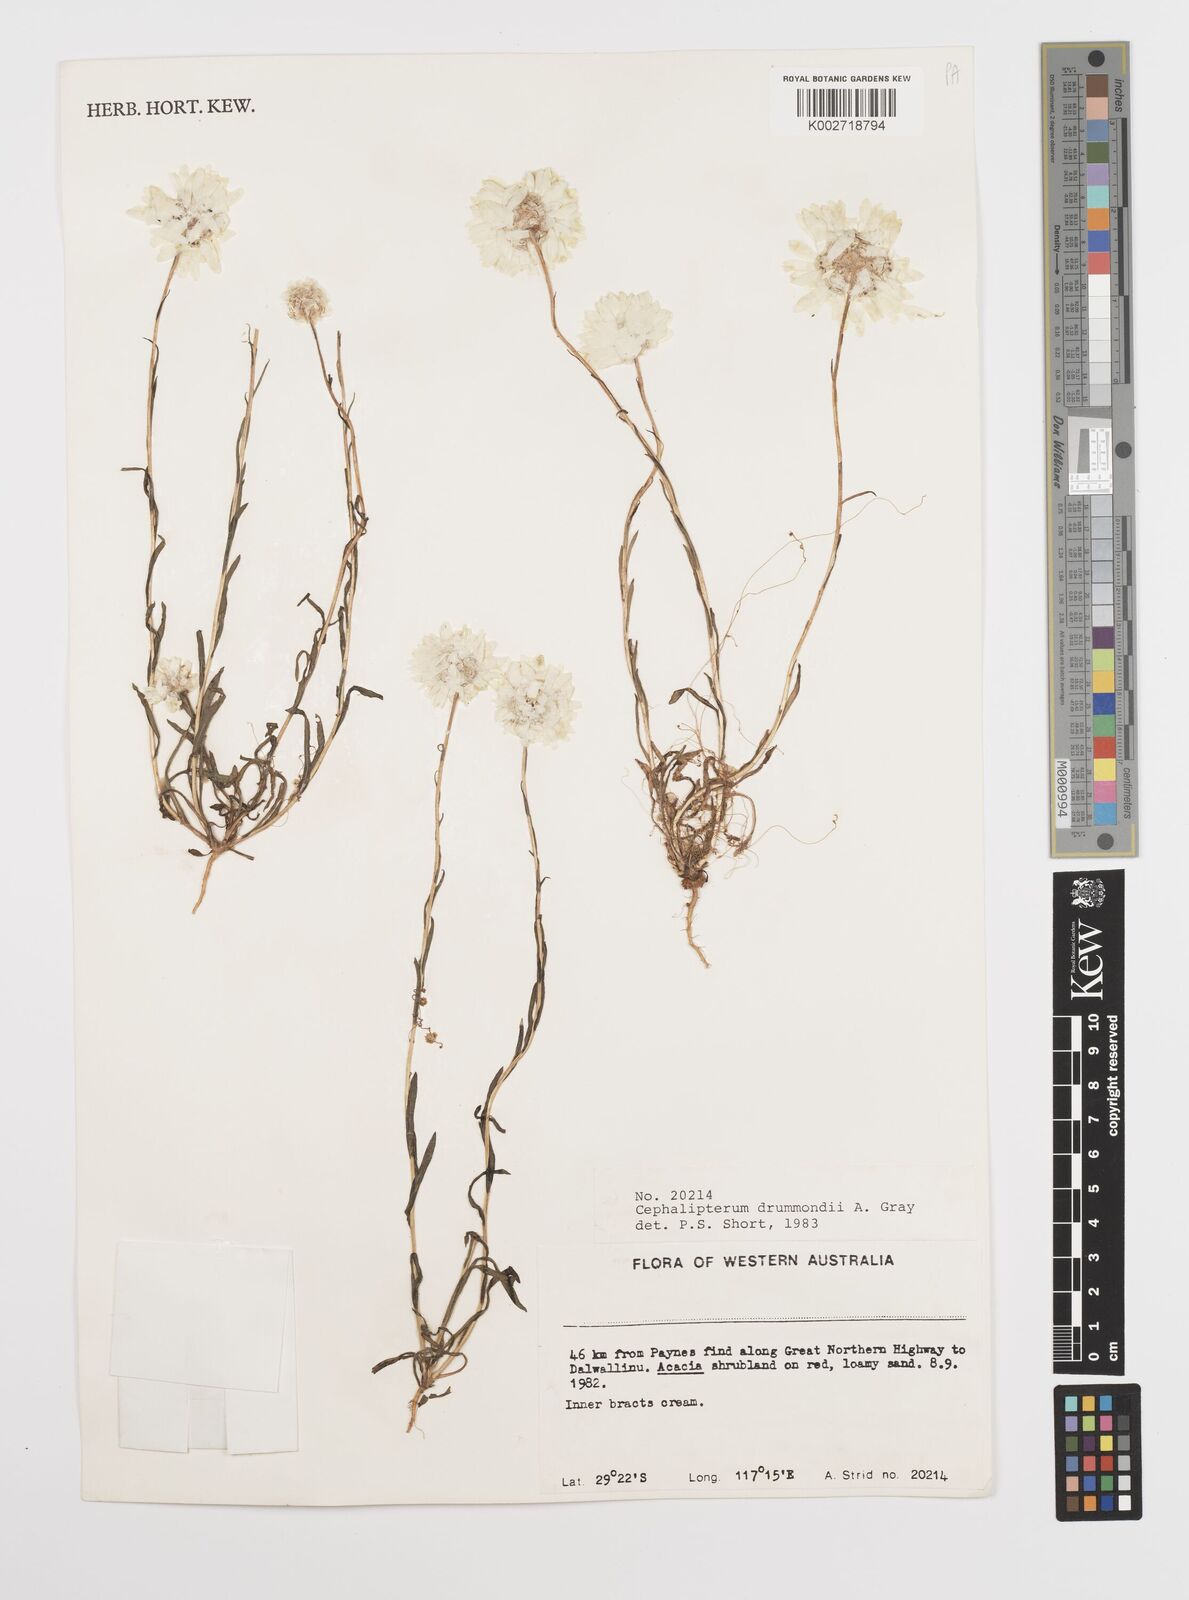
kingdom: Plantae
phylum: Tracheophyta
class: Magnoliopsida
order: Asterales
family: Asteraceae
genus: Cephalipterum
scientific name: Cephalipterum drummondii
